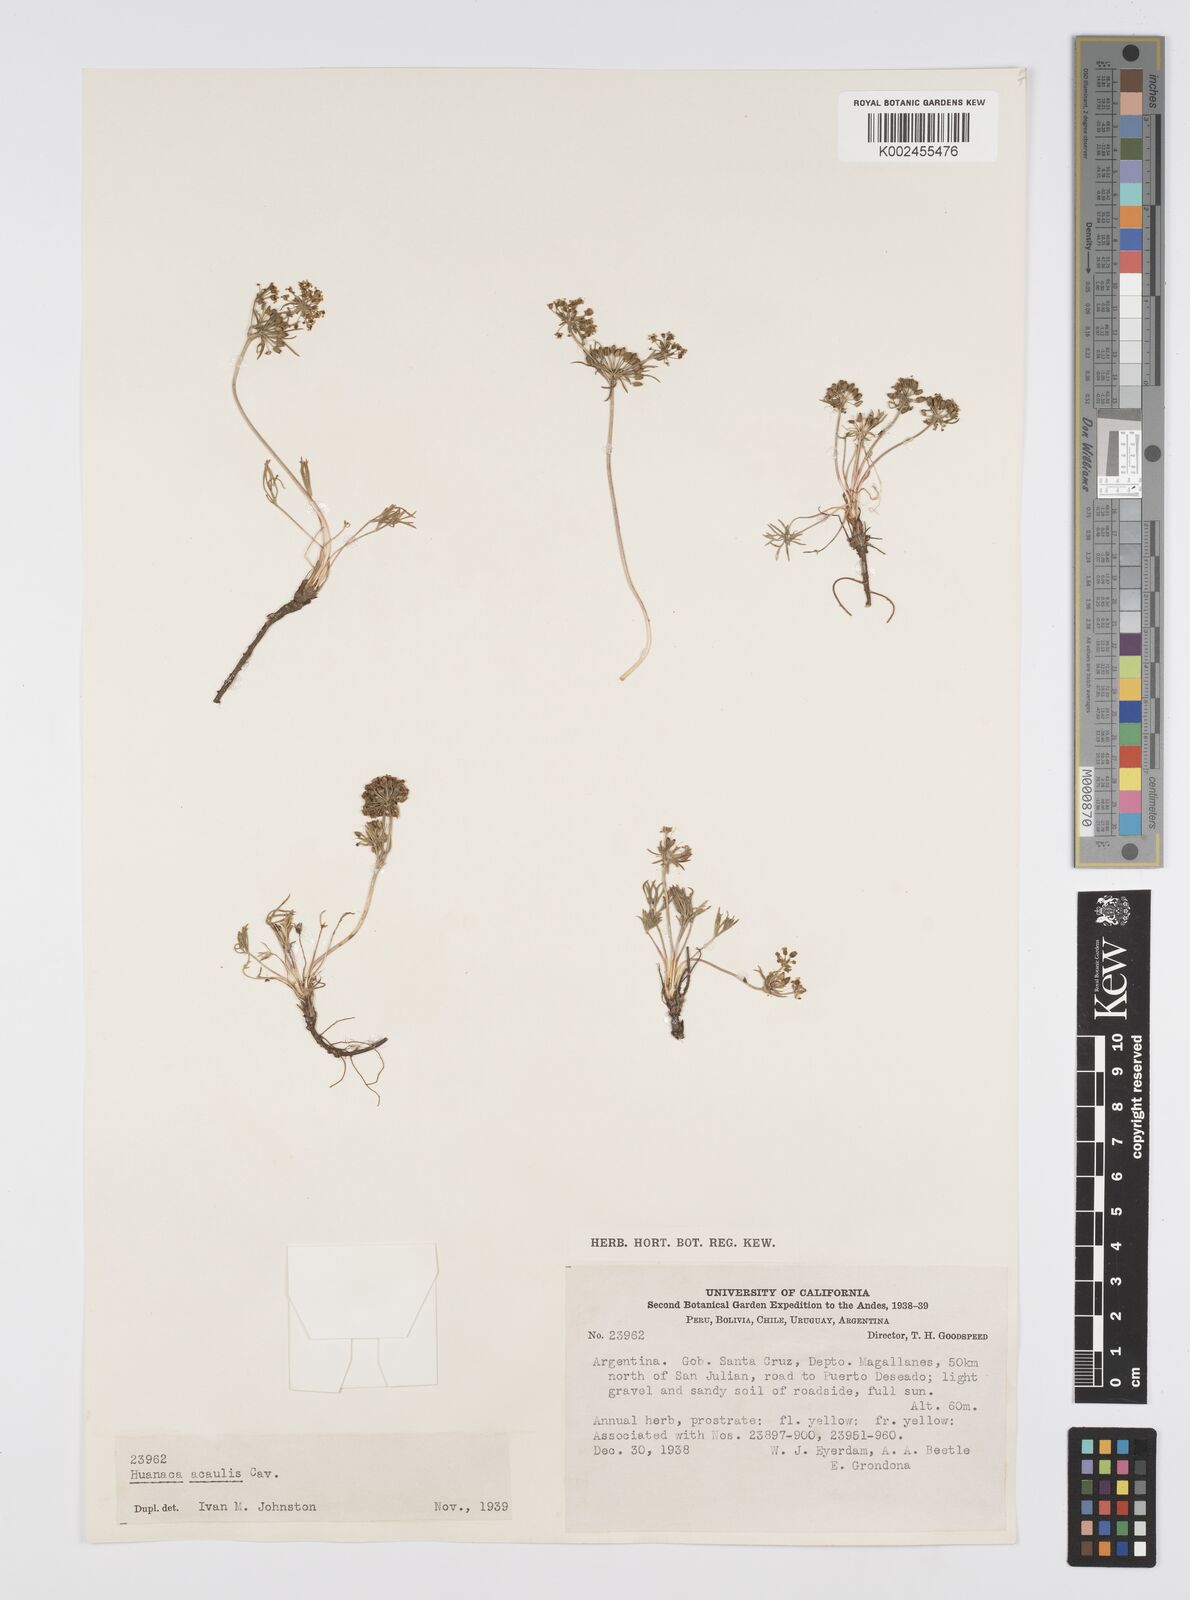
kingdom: Plantae
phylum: Tracheophyta
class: Magnoliopsida
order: Apiales
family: Apiaceae
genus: Azorella
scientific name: Azorella acaulis
